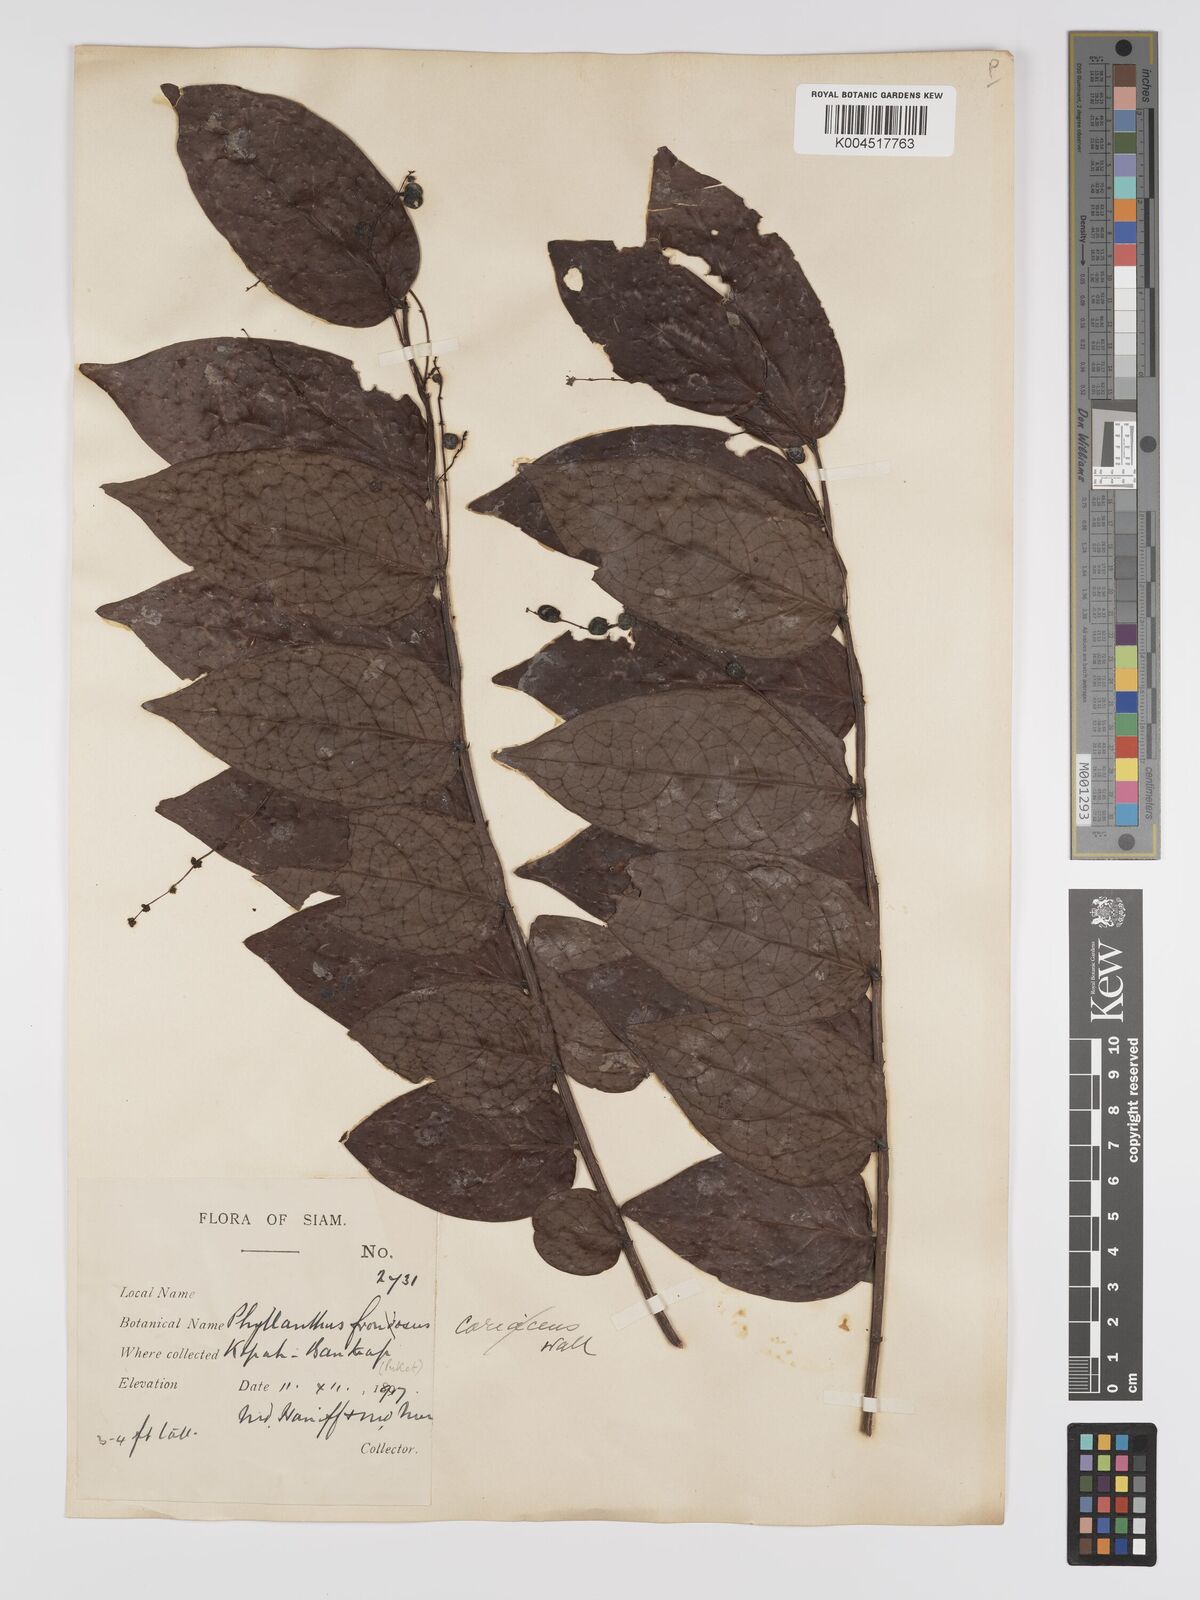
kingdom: Plantae
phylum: Tracheophyta
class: Magnoliopsida
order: Malpighiales
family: Phyllanthaceae
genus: Phyllanthus
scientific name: Phyllanthus pachyphyllus
